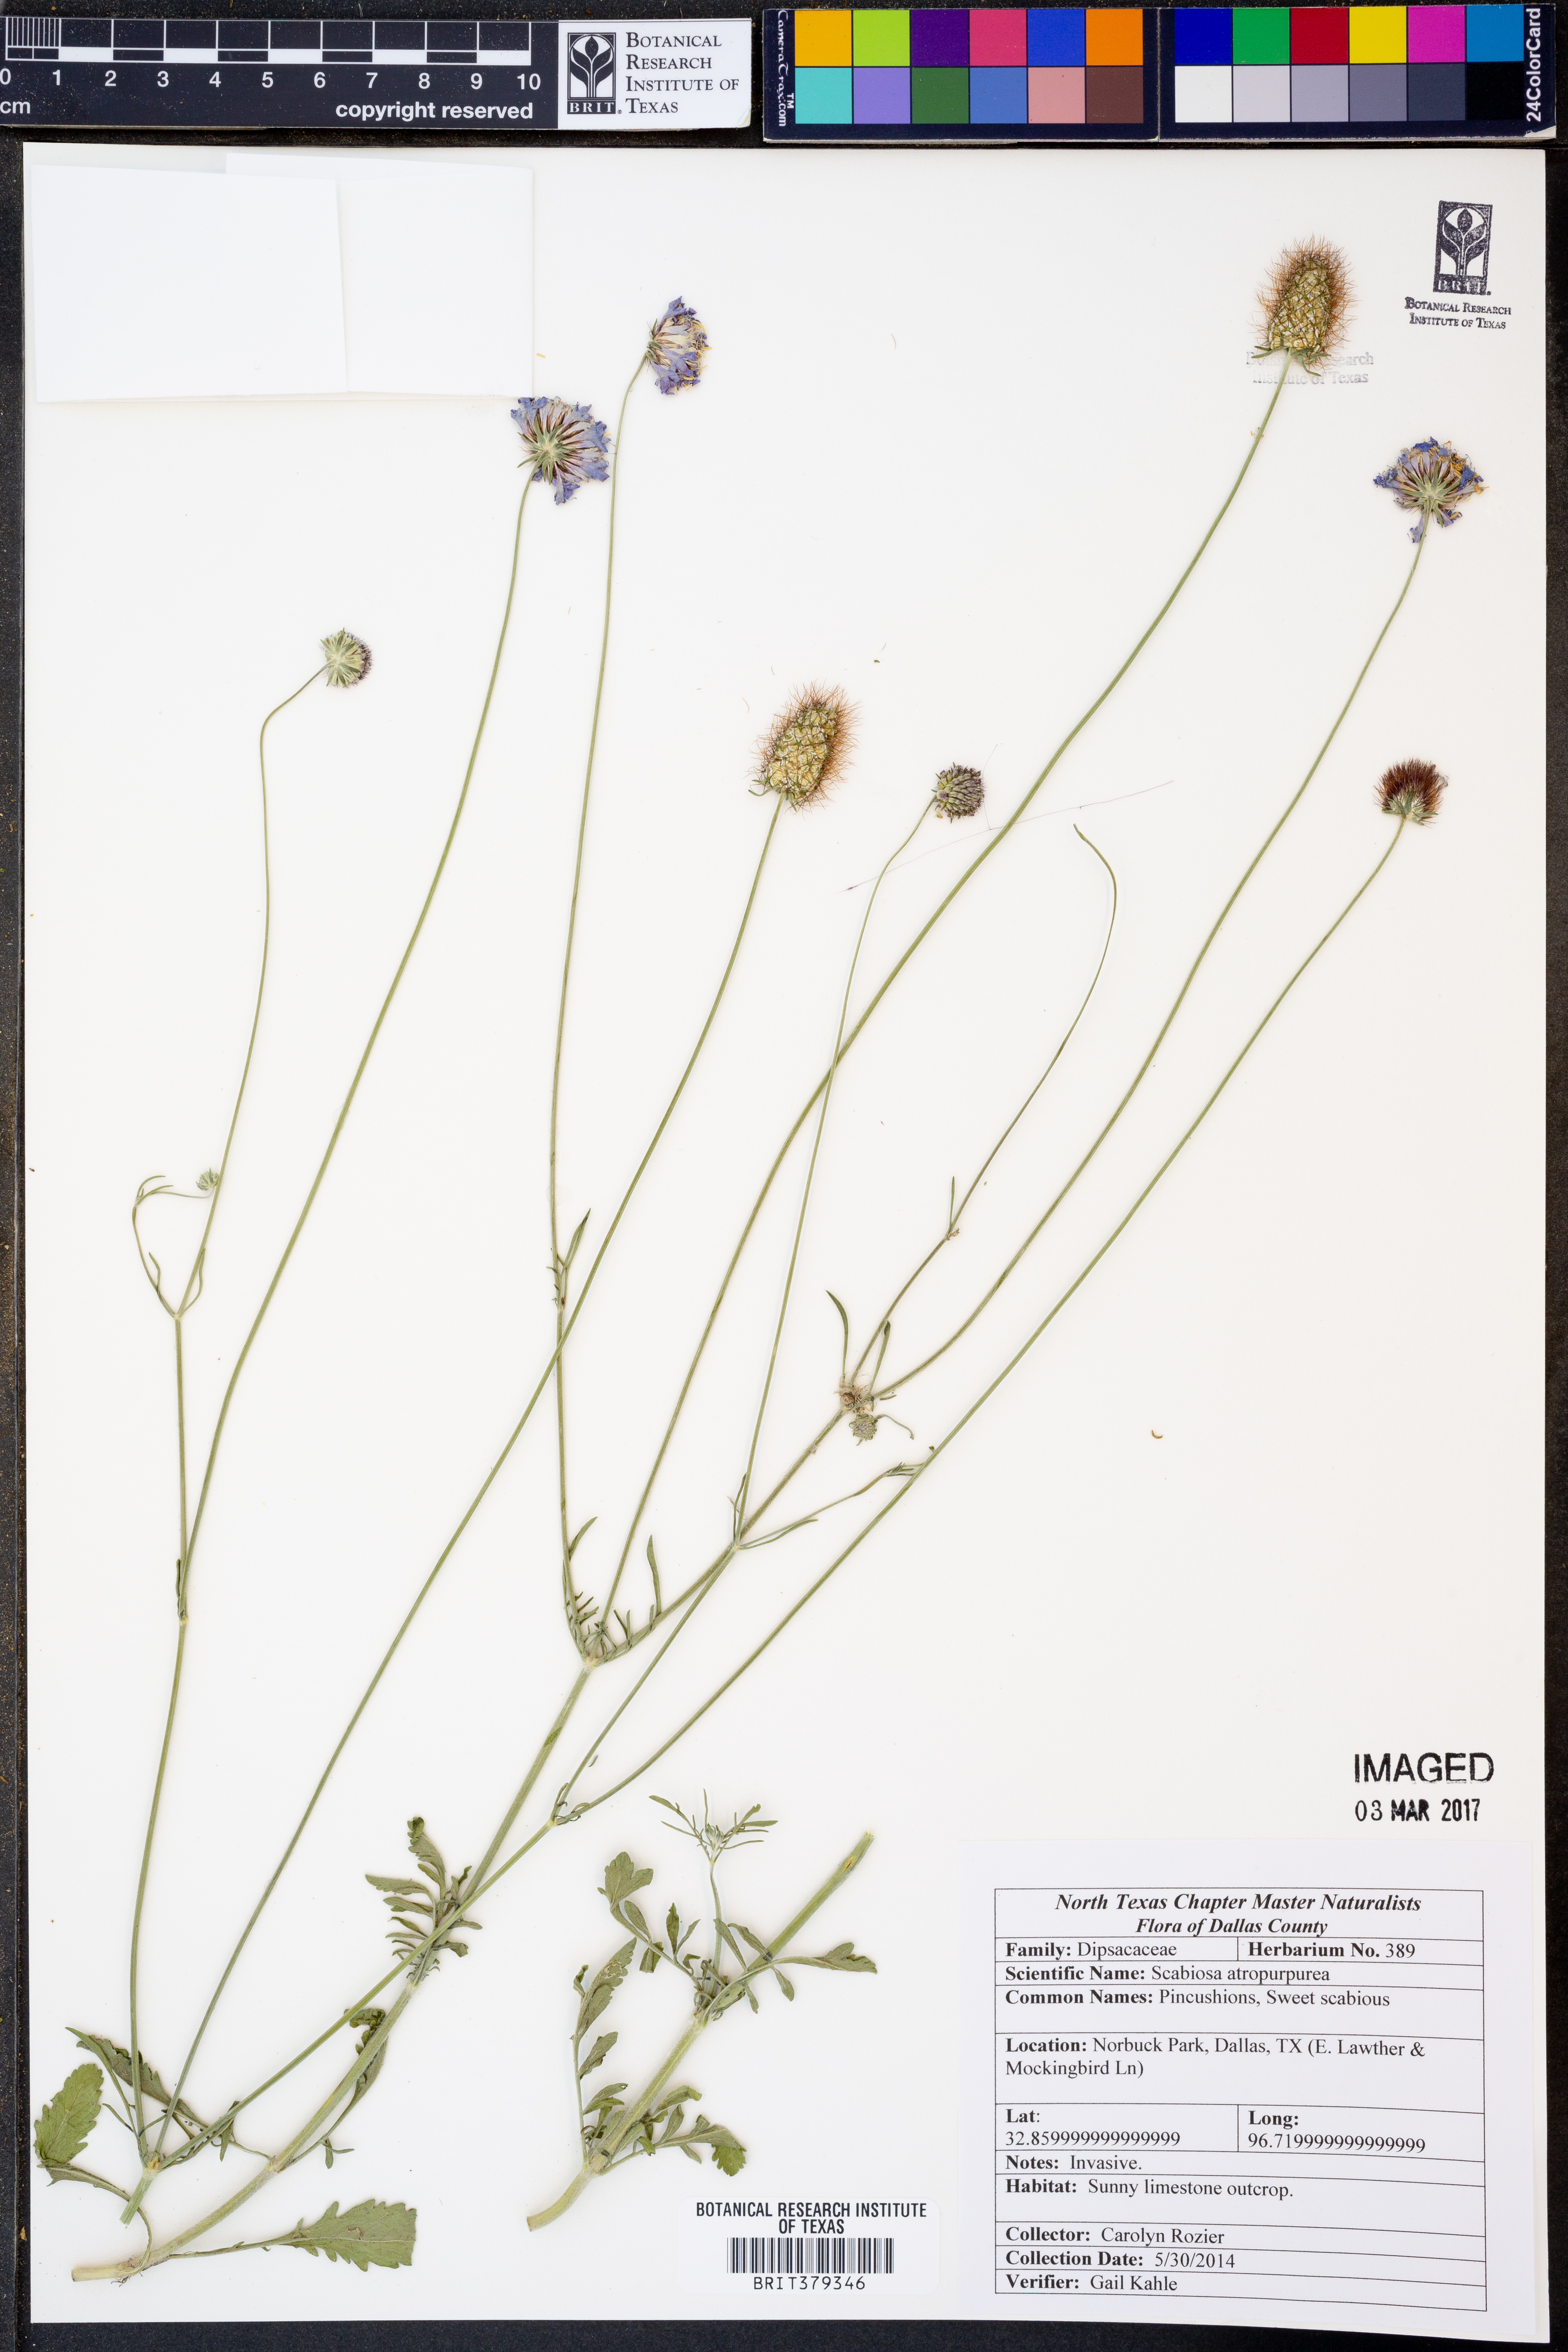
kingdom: Plantae
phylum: Tracheophyta
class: Magnoliopsida
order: Dipsacales
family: Caprifoliaceae
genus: Sixalix
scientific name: Sixalix atropurpurea
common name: Sweet scabious
